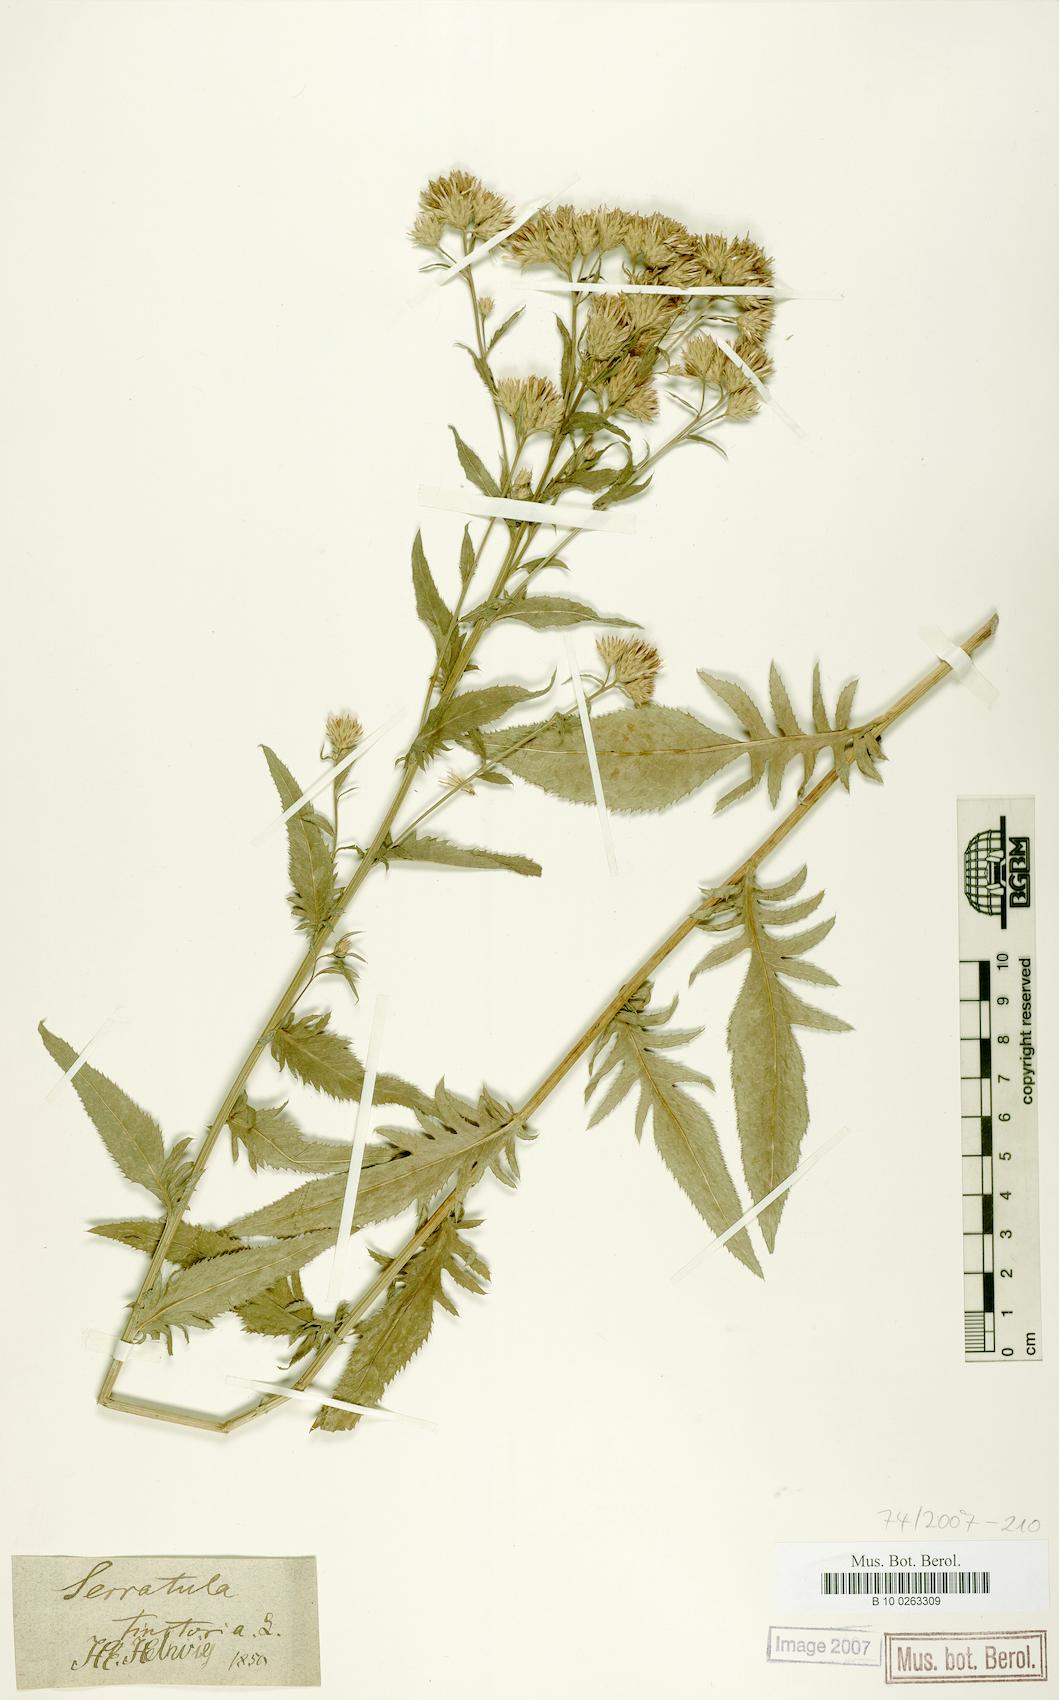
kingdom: Plantae
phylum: Tracheophyta
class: Magnoliopsida
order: Asterales
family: Asteraceae
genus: Serratula
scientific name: Serratula tinctoria
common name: Saw-wort
